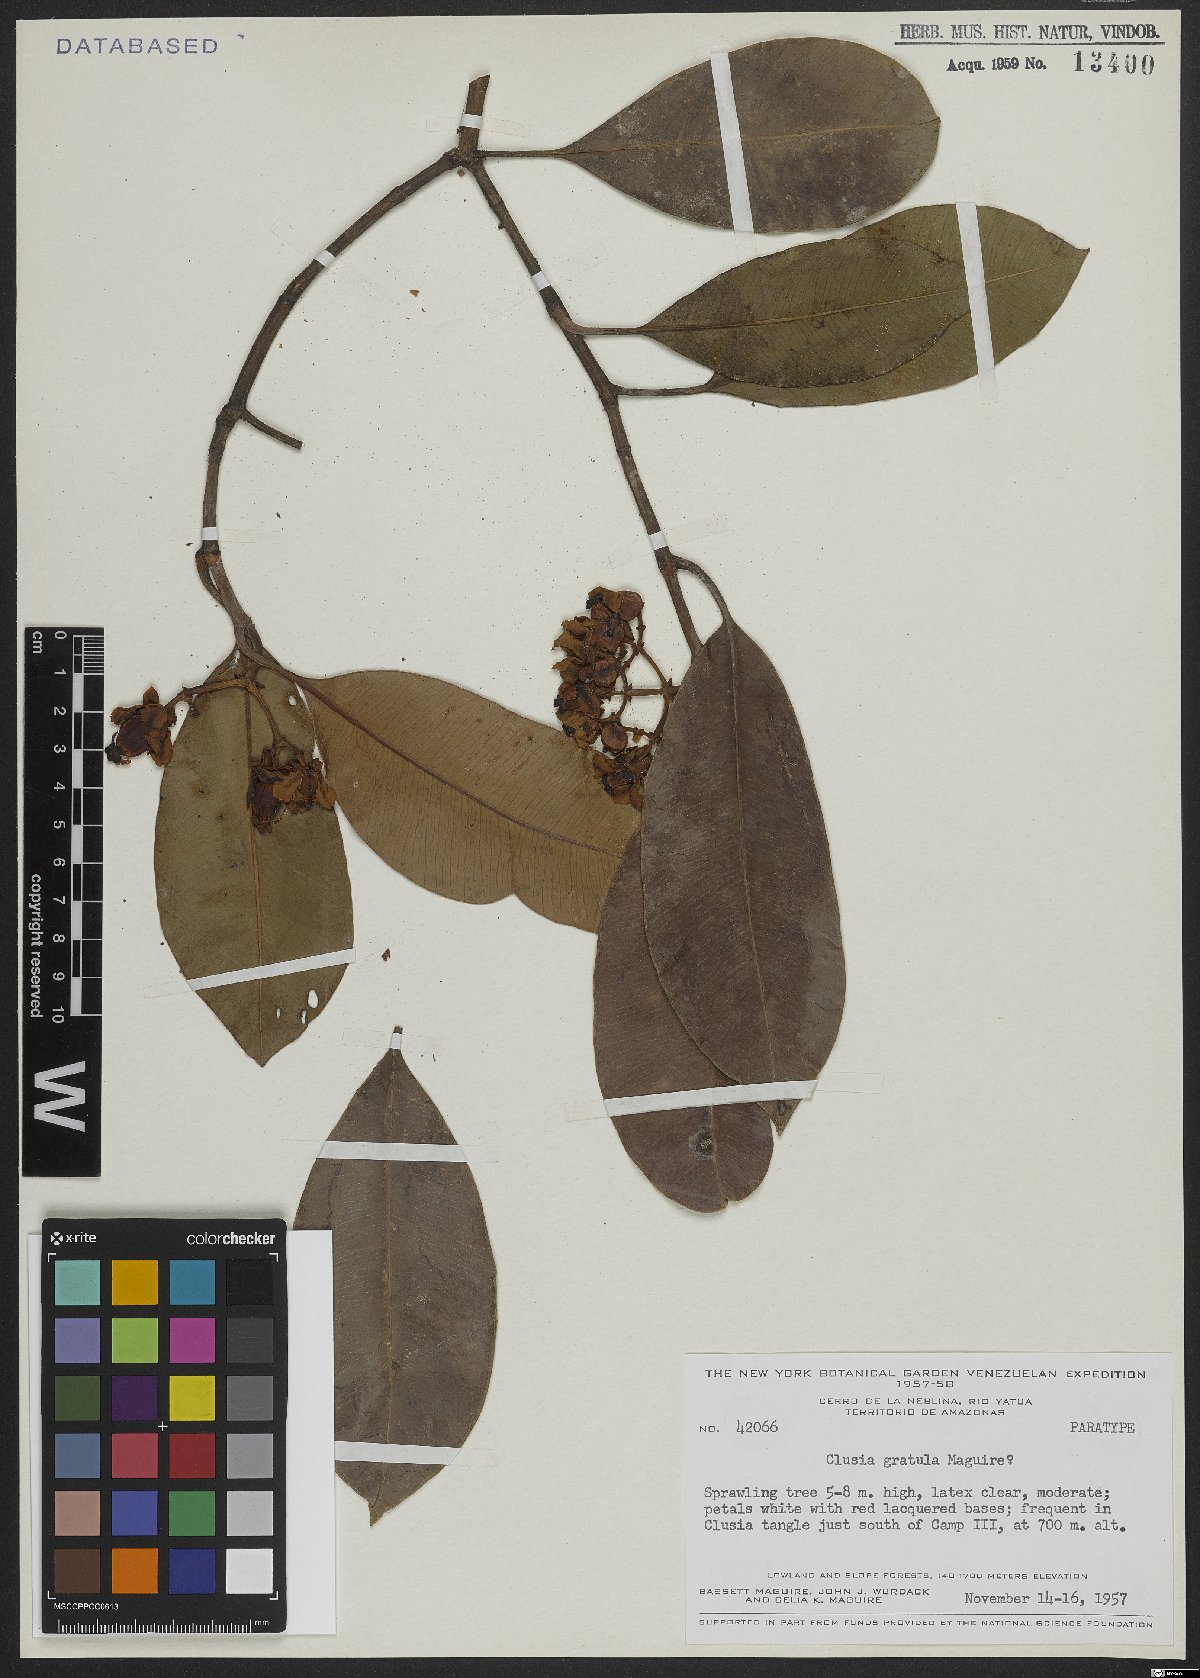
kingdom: Plantae
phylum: Tracheophyta
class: Magnoliopsida
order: Malpighiales
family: Clusiaceae
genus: Clusia
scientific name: Clusia gratula
